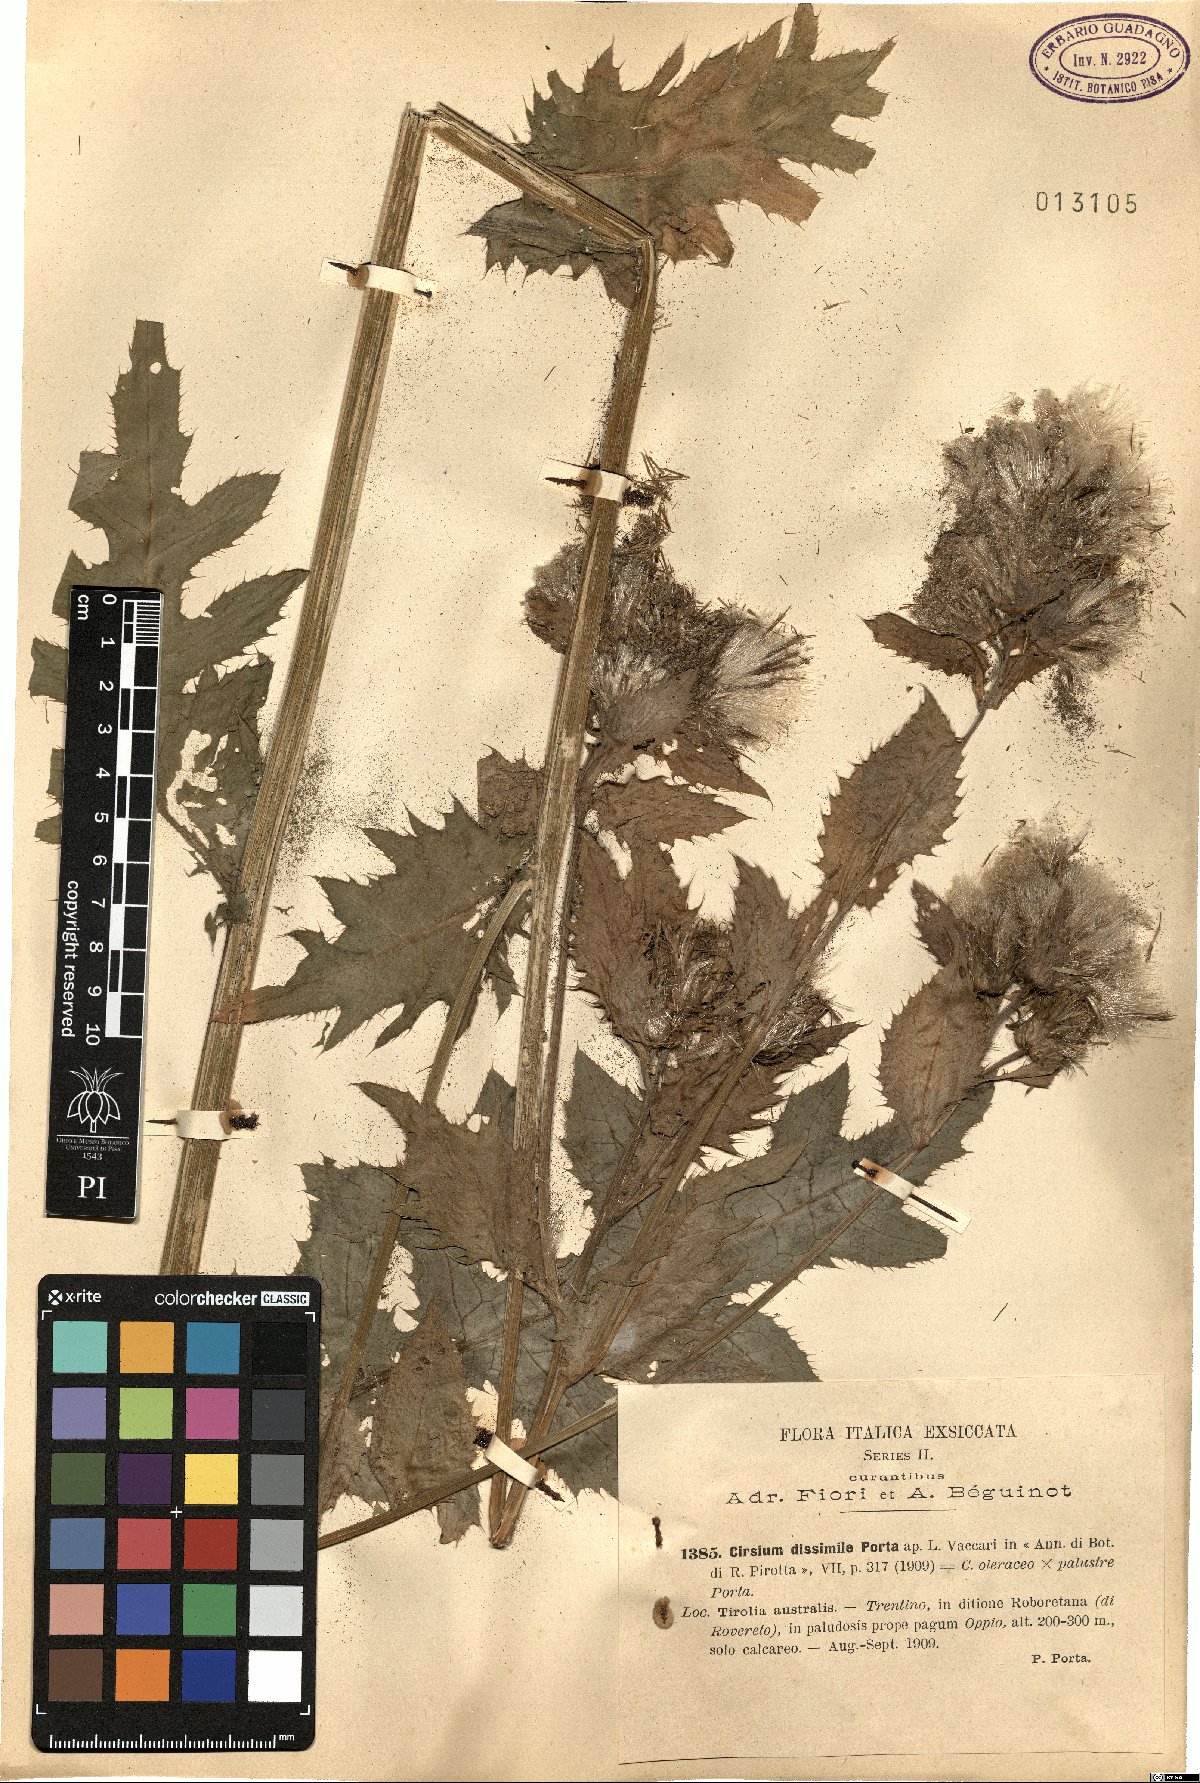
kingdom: Plantae
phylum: Tracheophyta
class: Magnoliopsida
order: Asterales
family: Asteraceae
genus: Cirsium
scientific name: Cirsium dissimile
